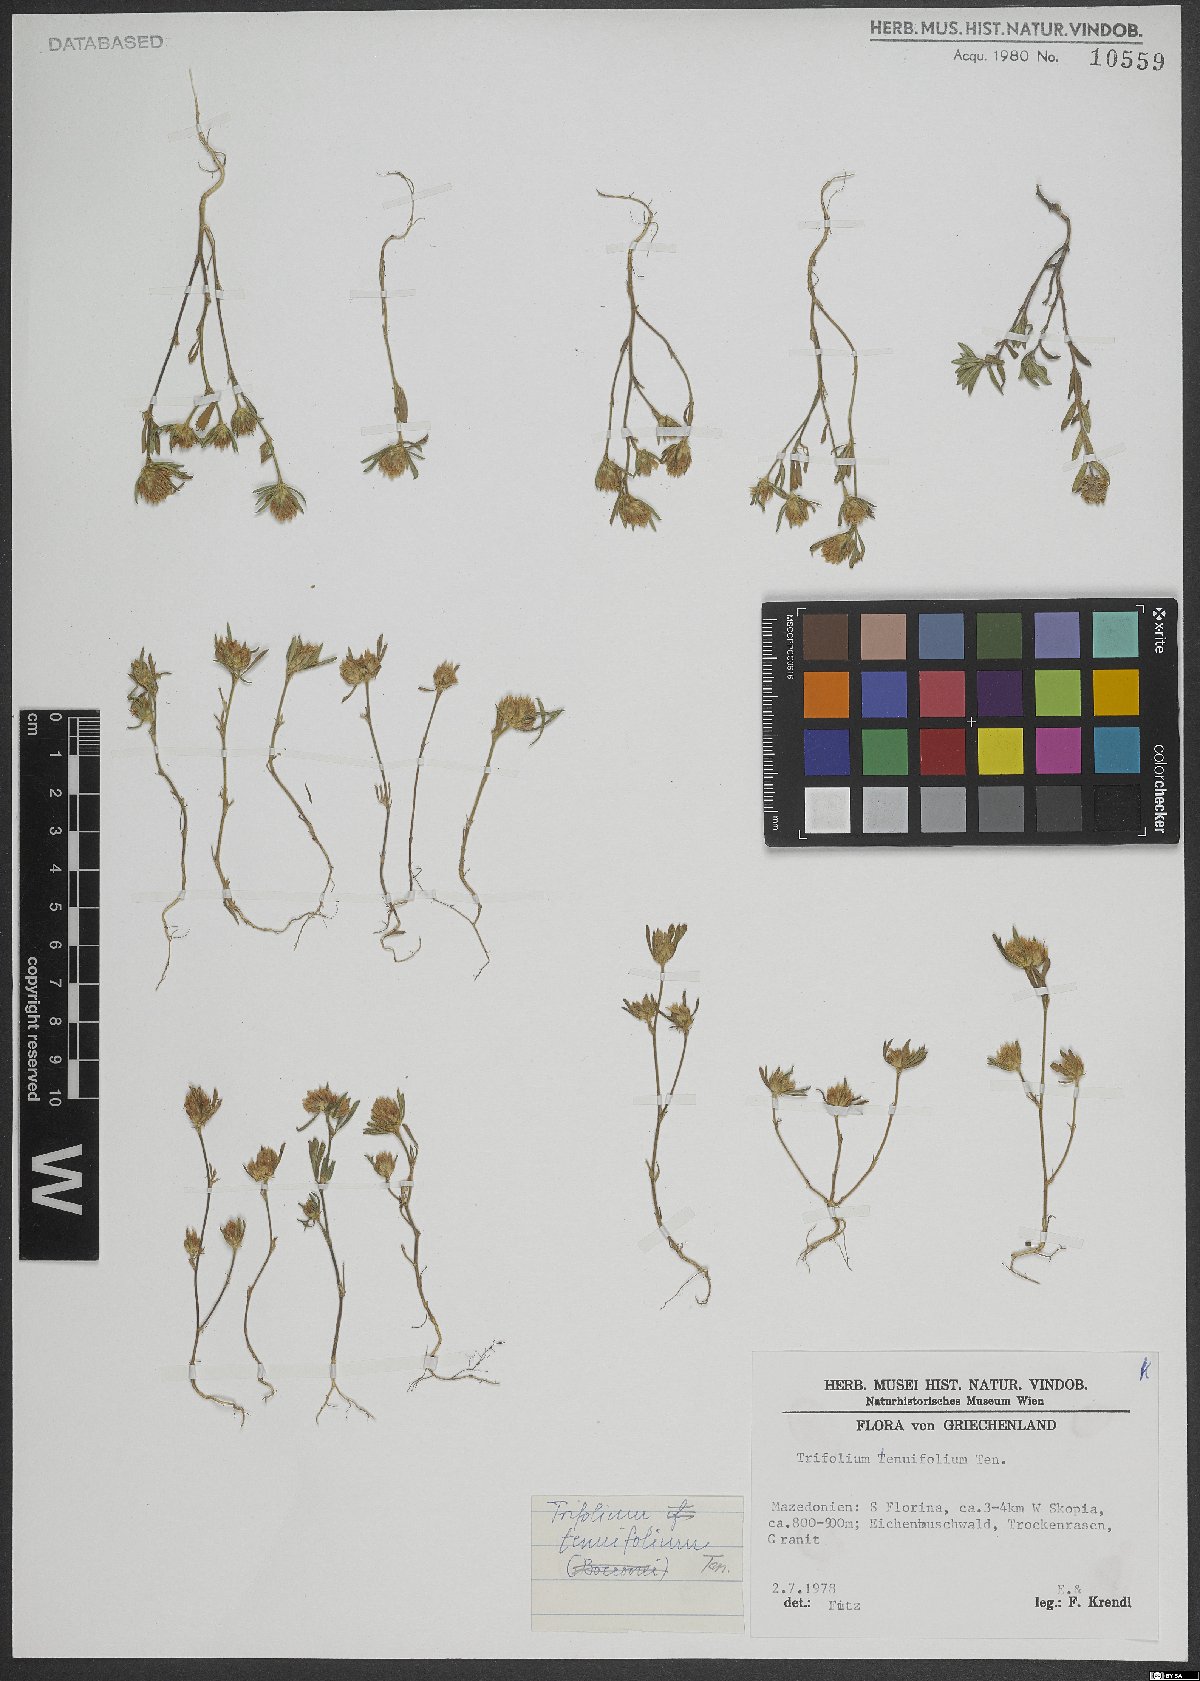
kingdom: Plantae
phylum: Tracheophyta
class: Magnoliopsida
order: Fabales
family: Fabaceae
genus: Trifolium
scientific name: Trifolium tenuifolium
